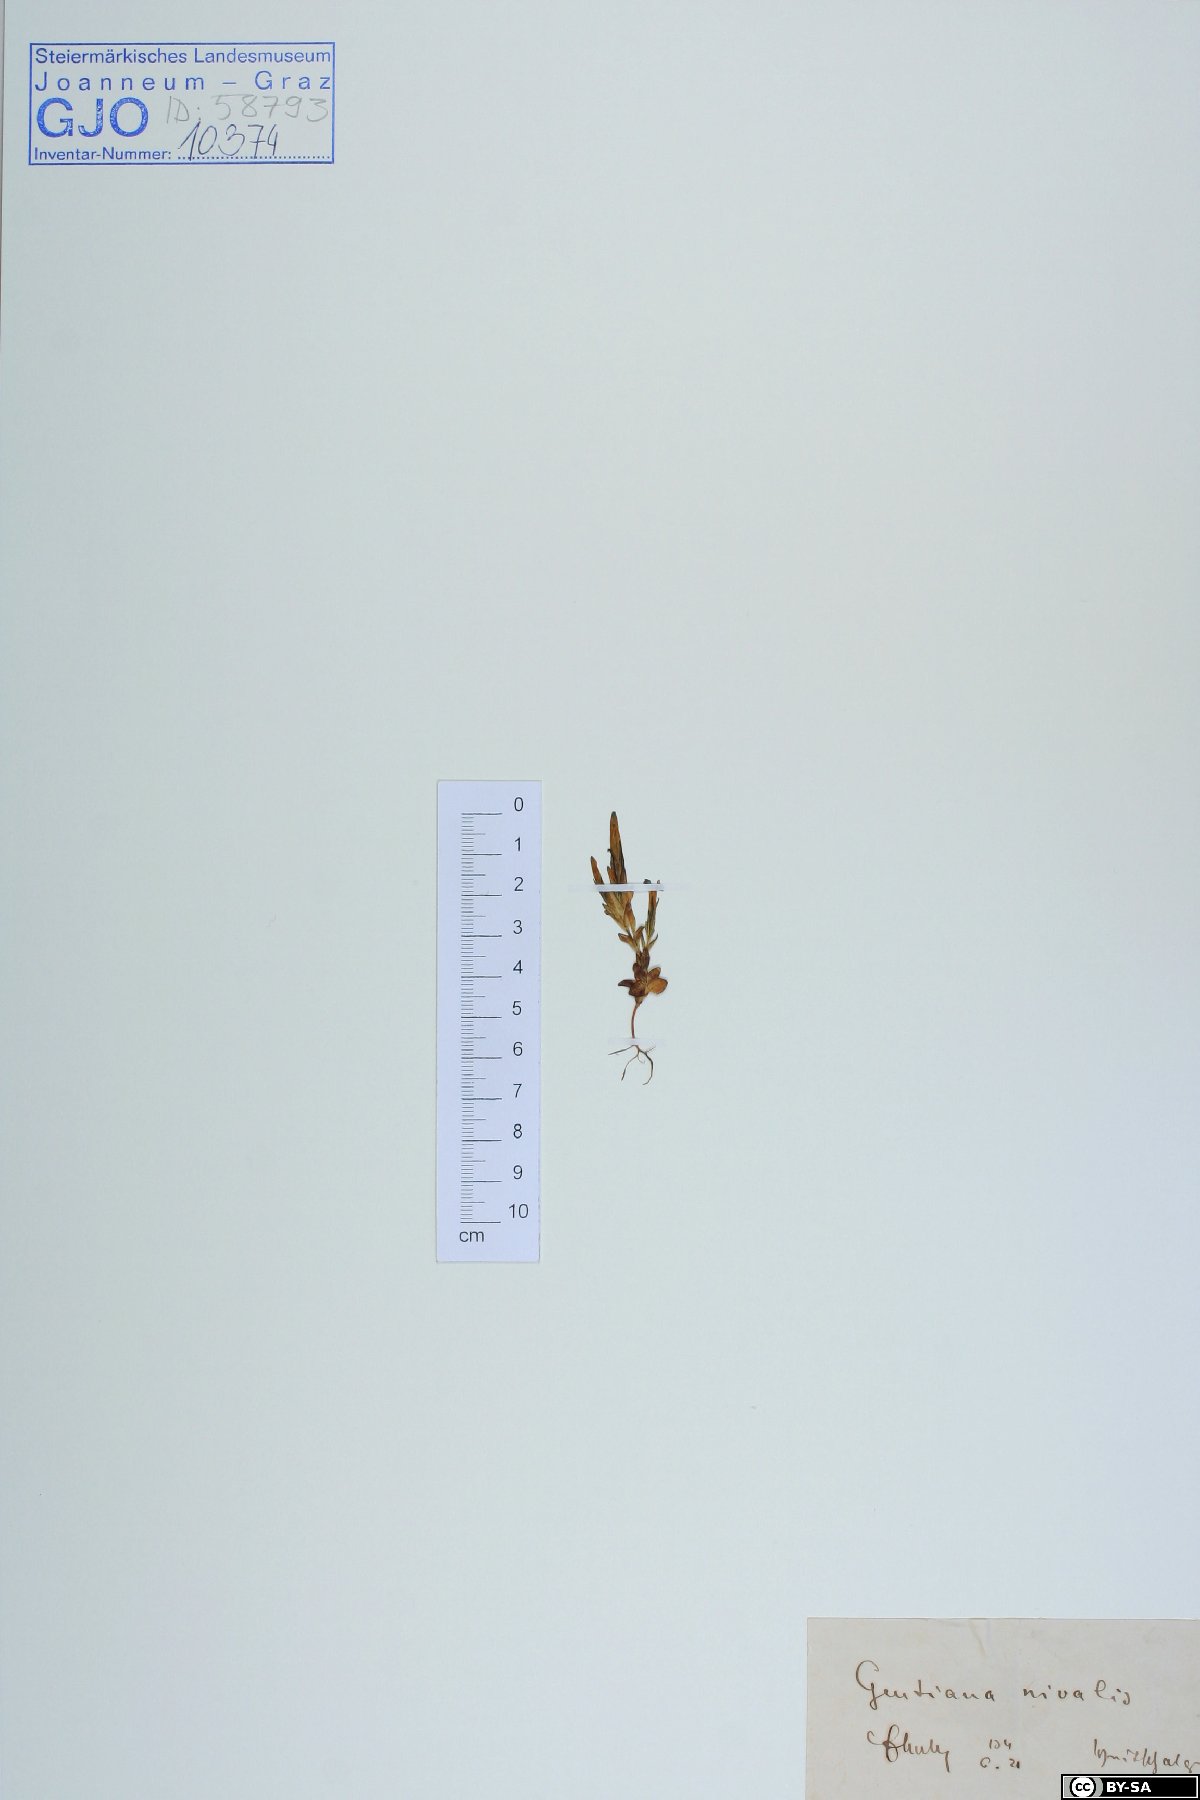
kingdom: Plantae
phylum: Tracheophyta
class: Magnoliopsida
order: Gentianales
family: Gentianaceae
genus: Gentiana
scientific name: Gentiana nivalis
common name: Alpine gentian
